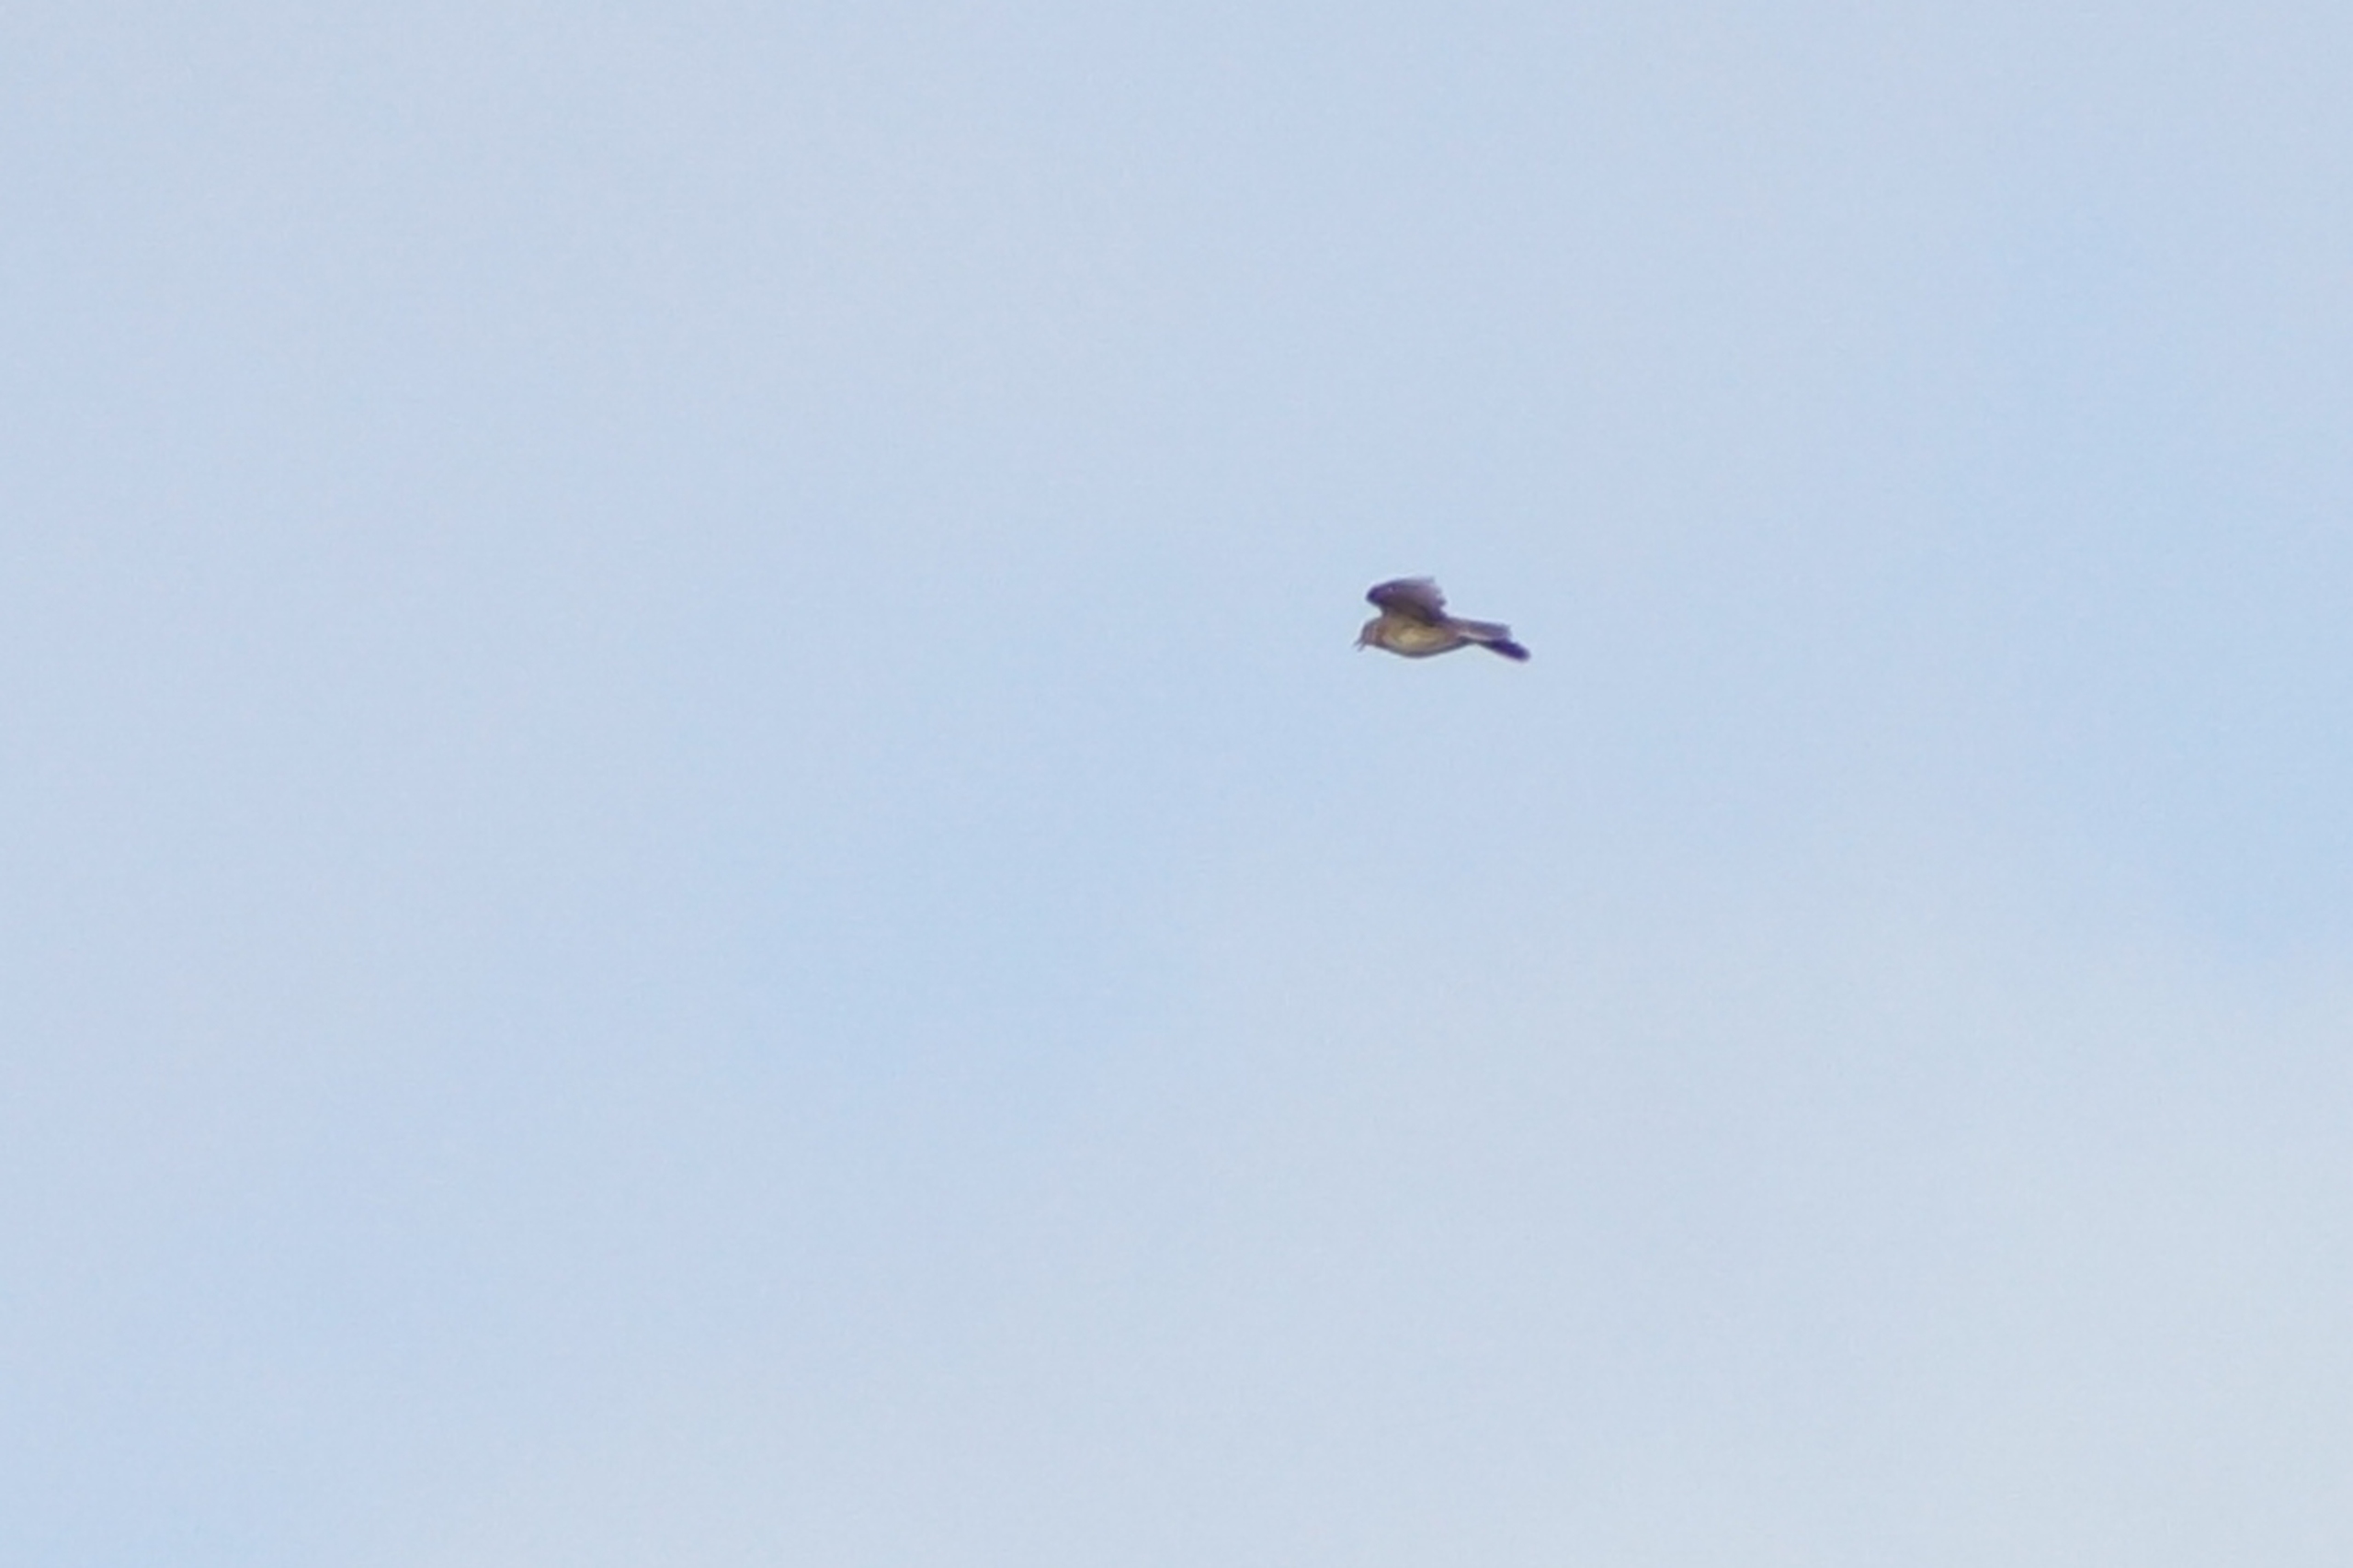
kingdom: Animalia
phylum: Chordata
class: Aves
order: Passeriformes
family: Alaudidae
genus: Alauda
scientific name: Alauda arvensis
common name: Sanglærke
